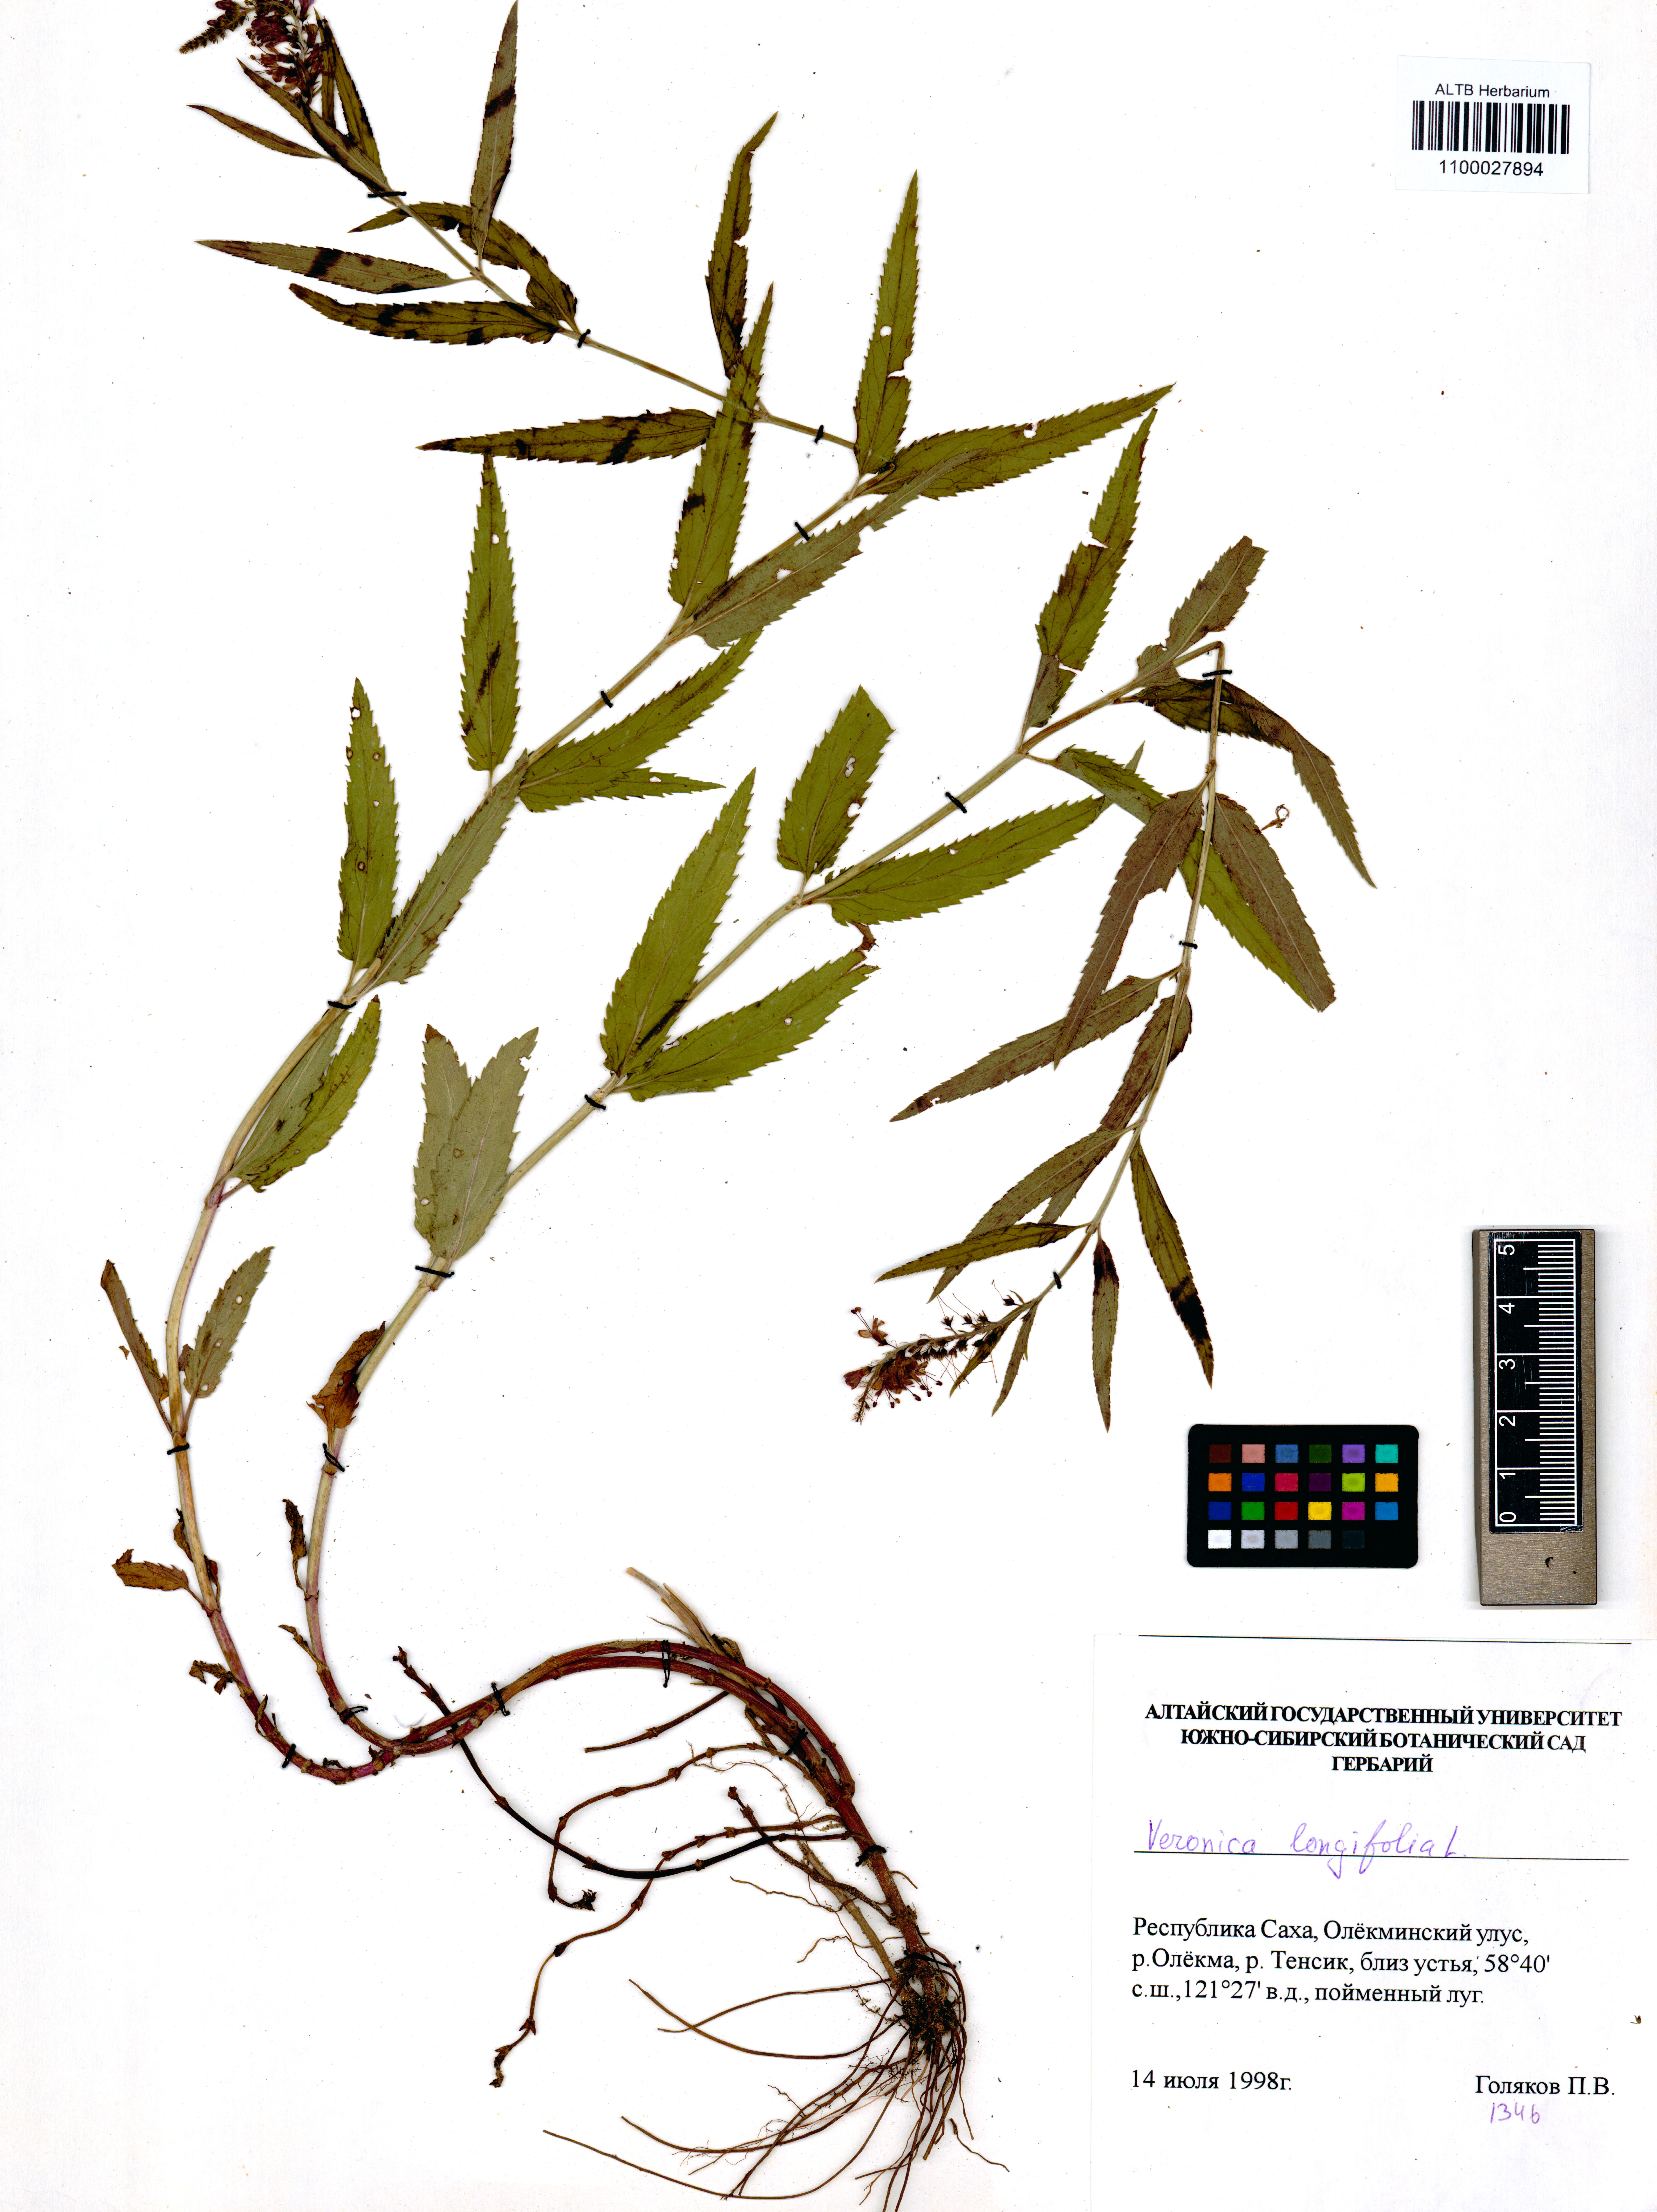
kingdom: Plantae
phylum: Tracheophyta
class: Magnoliopsida
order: Lamiales
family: Plantaginaceae
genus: Veronica
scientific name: Veronica longifolia
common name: Garden speedwell
